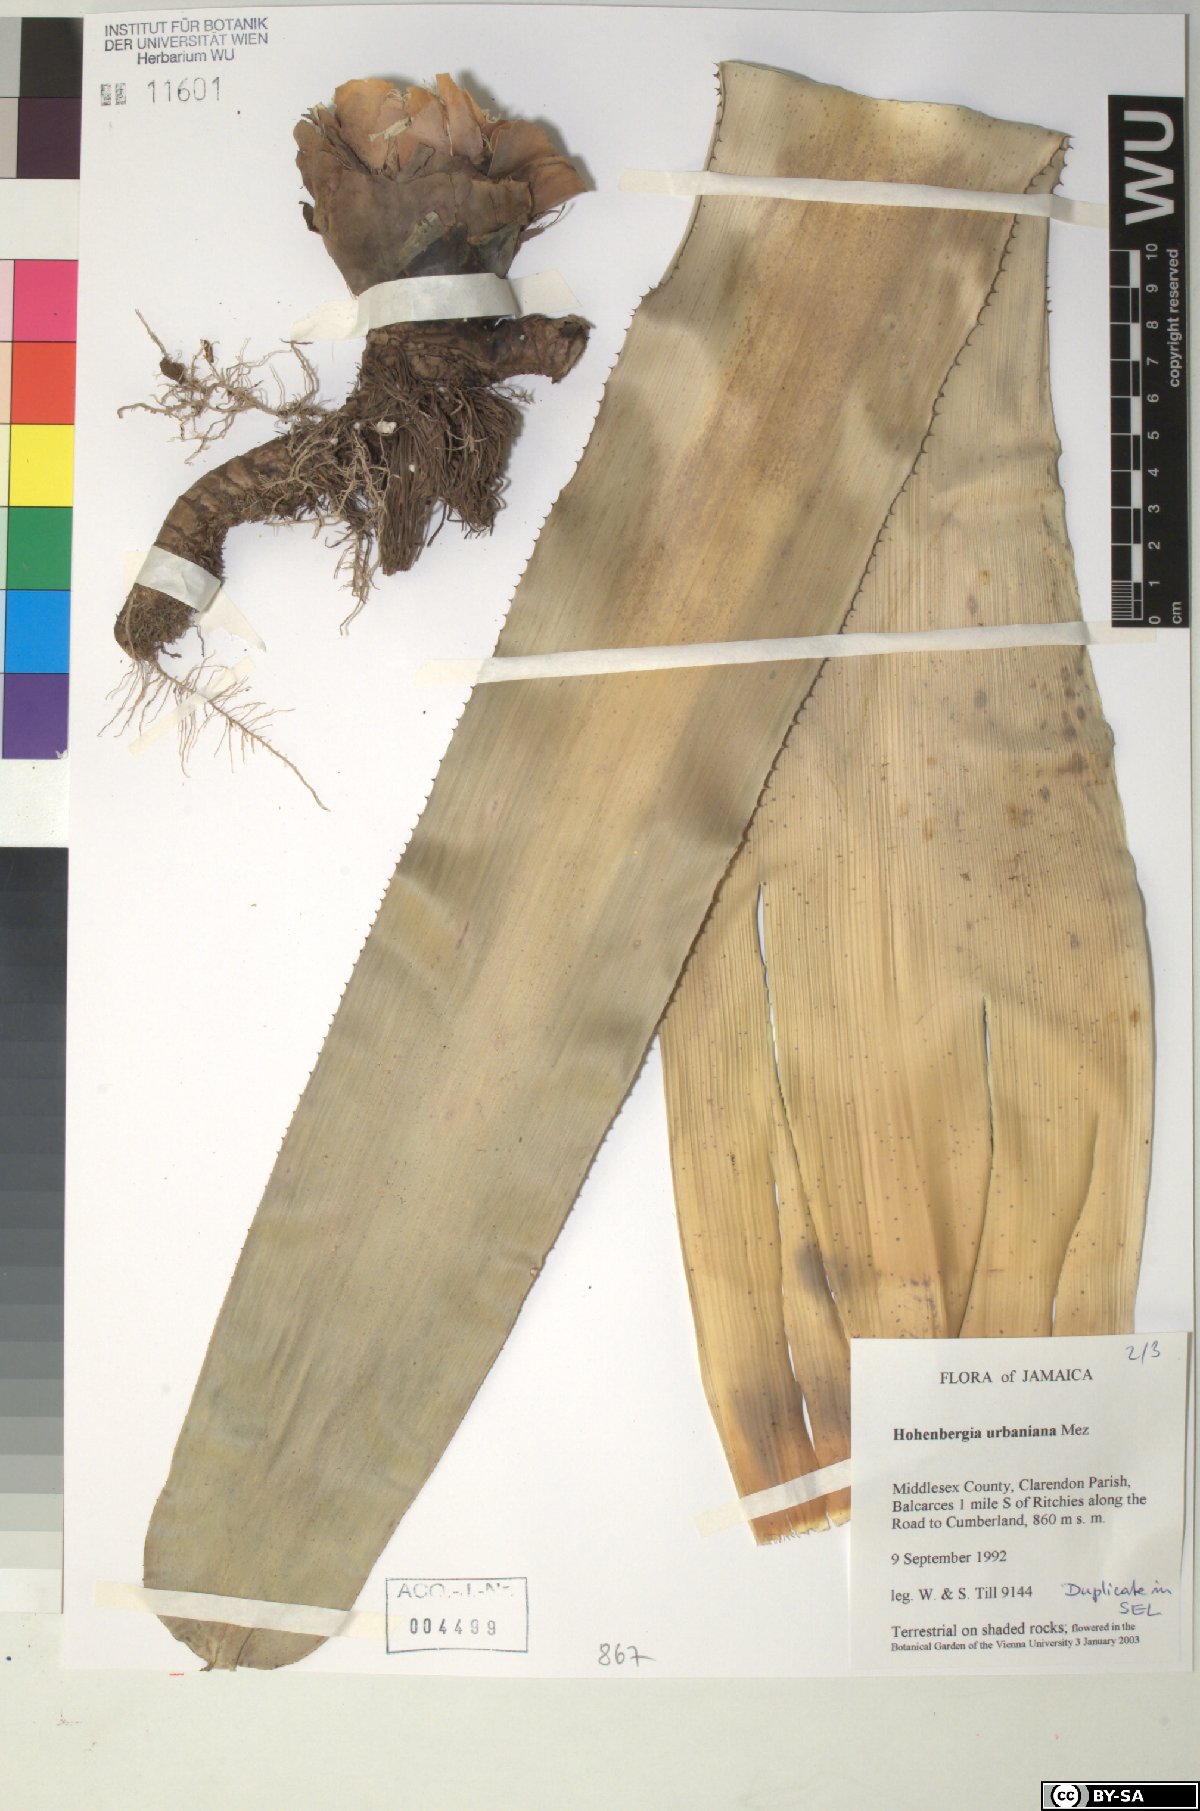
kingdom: Plantae
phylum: Tracheophyta
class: Liliopsida
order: Poales
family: Bromeliaceae
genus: Wittmackia
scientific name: Wittmackia urbaniana
